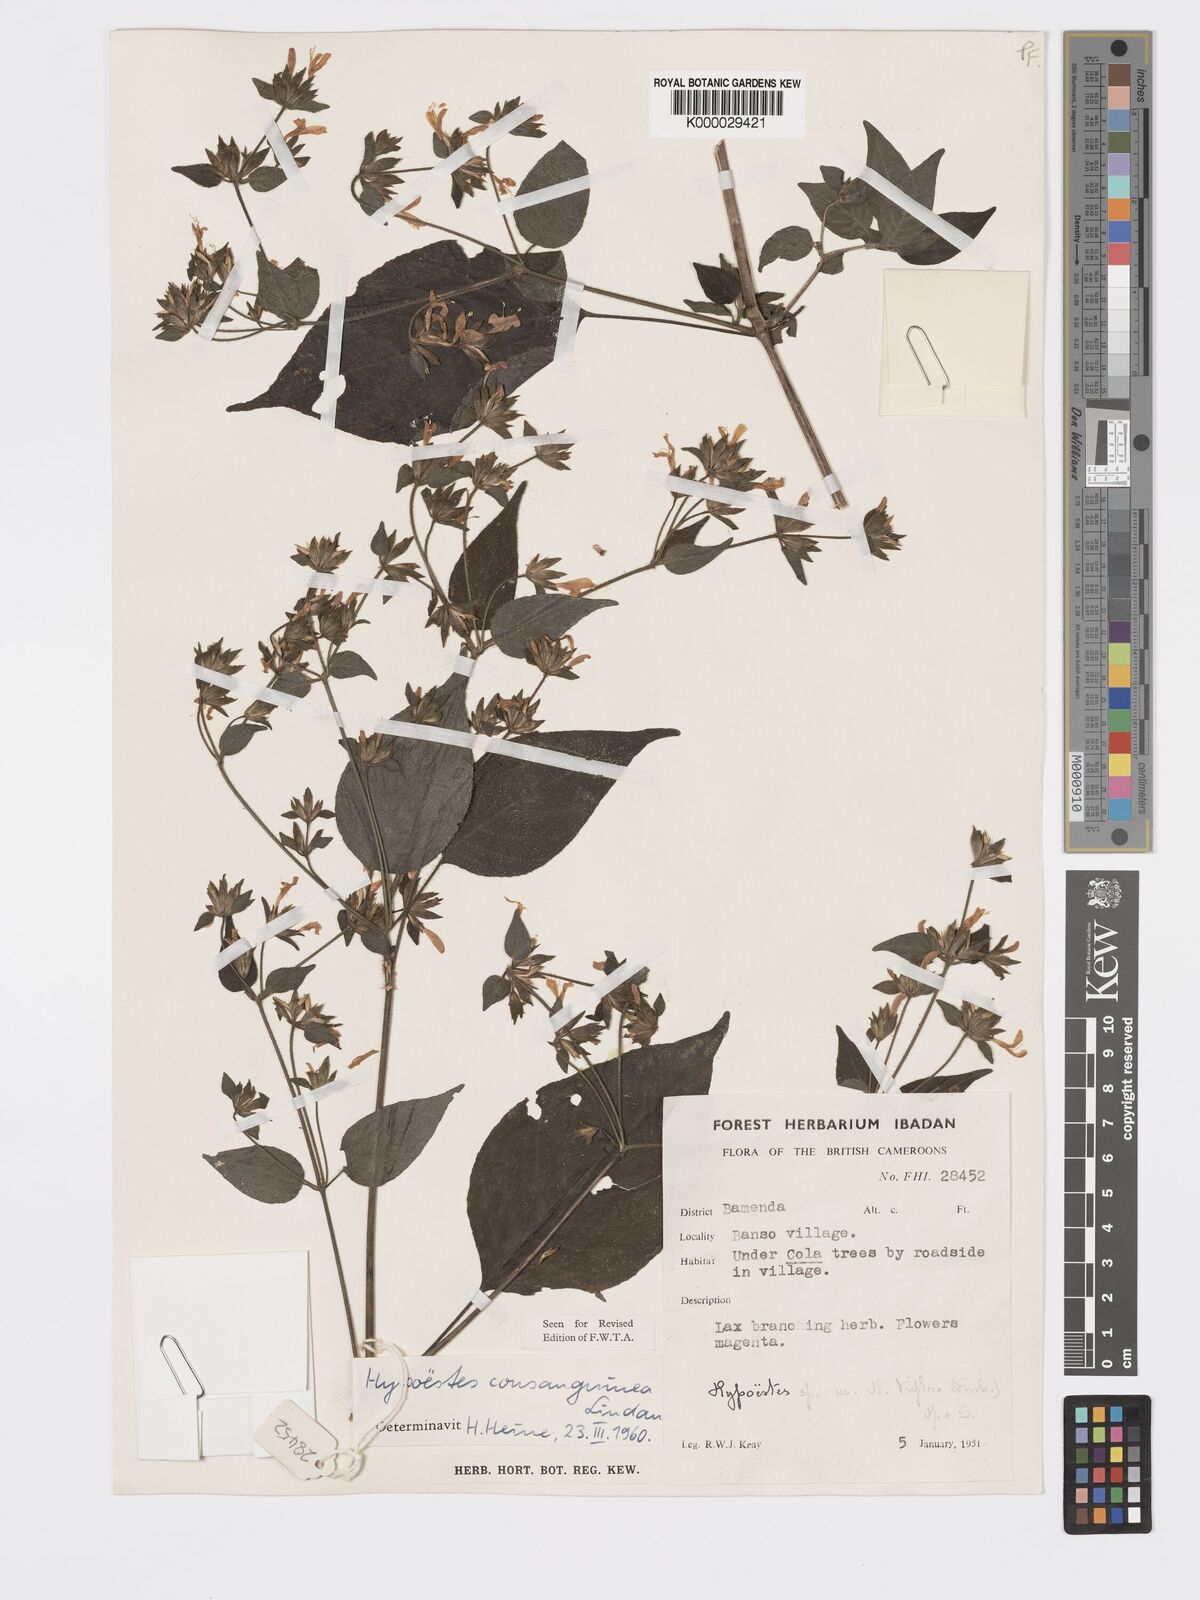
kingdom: Plantae
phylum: Tracheophyta
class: Magnoliopsida
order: Lamiales
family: Acanthaceae
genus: Hypoestes
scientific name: Hypoestes rosea
